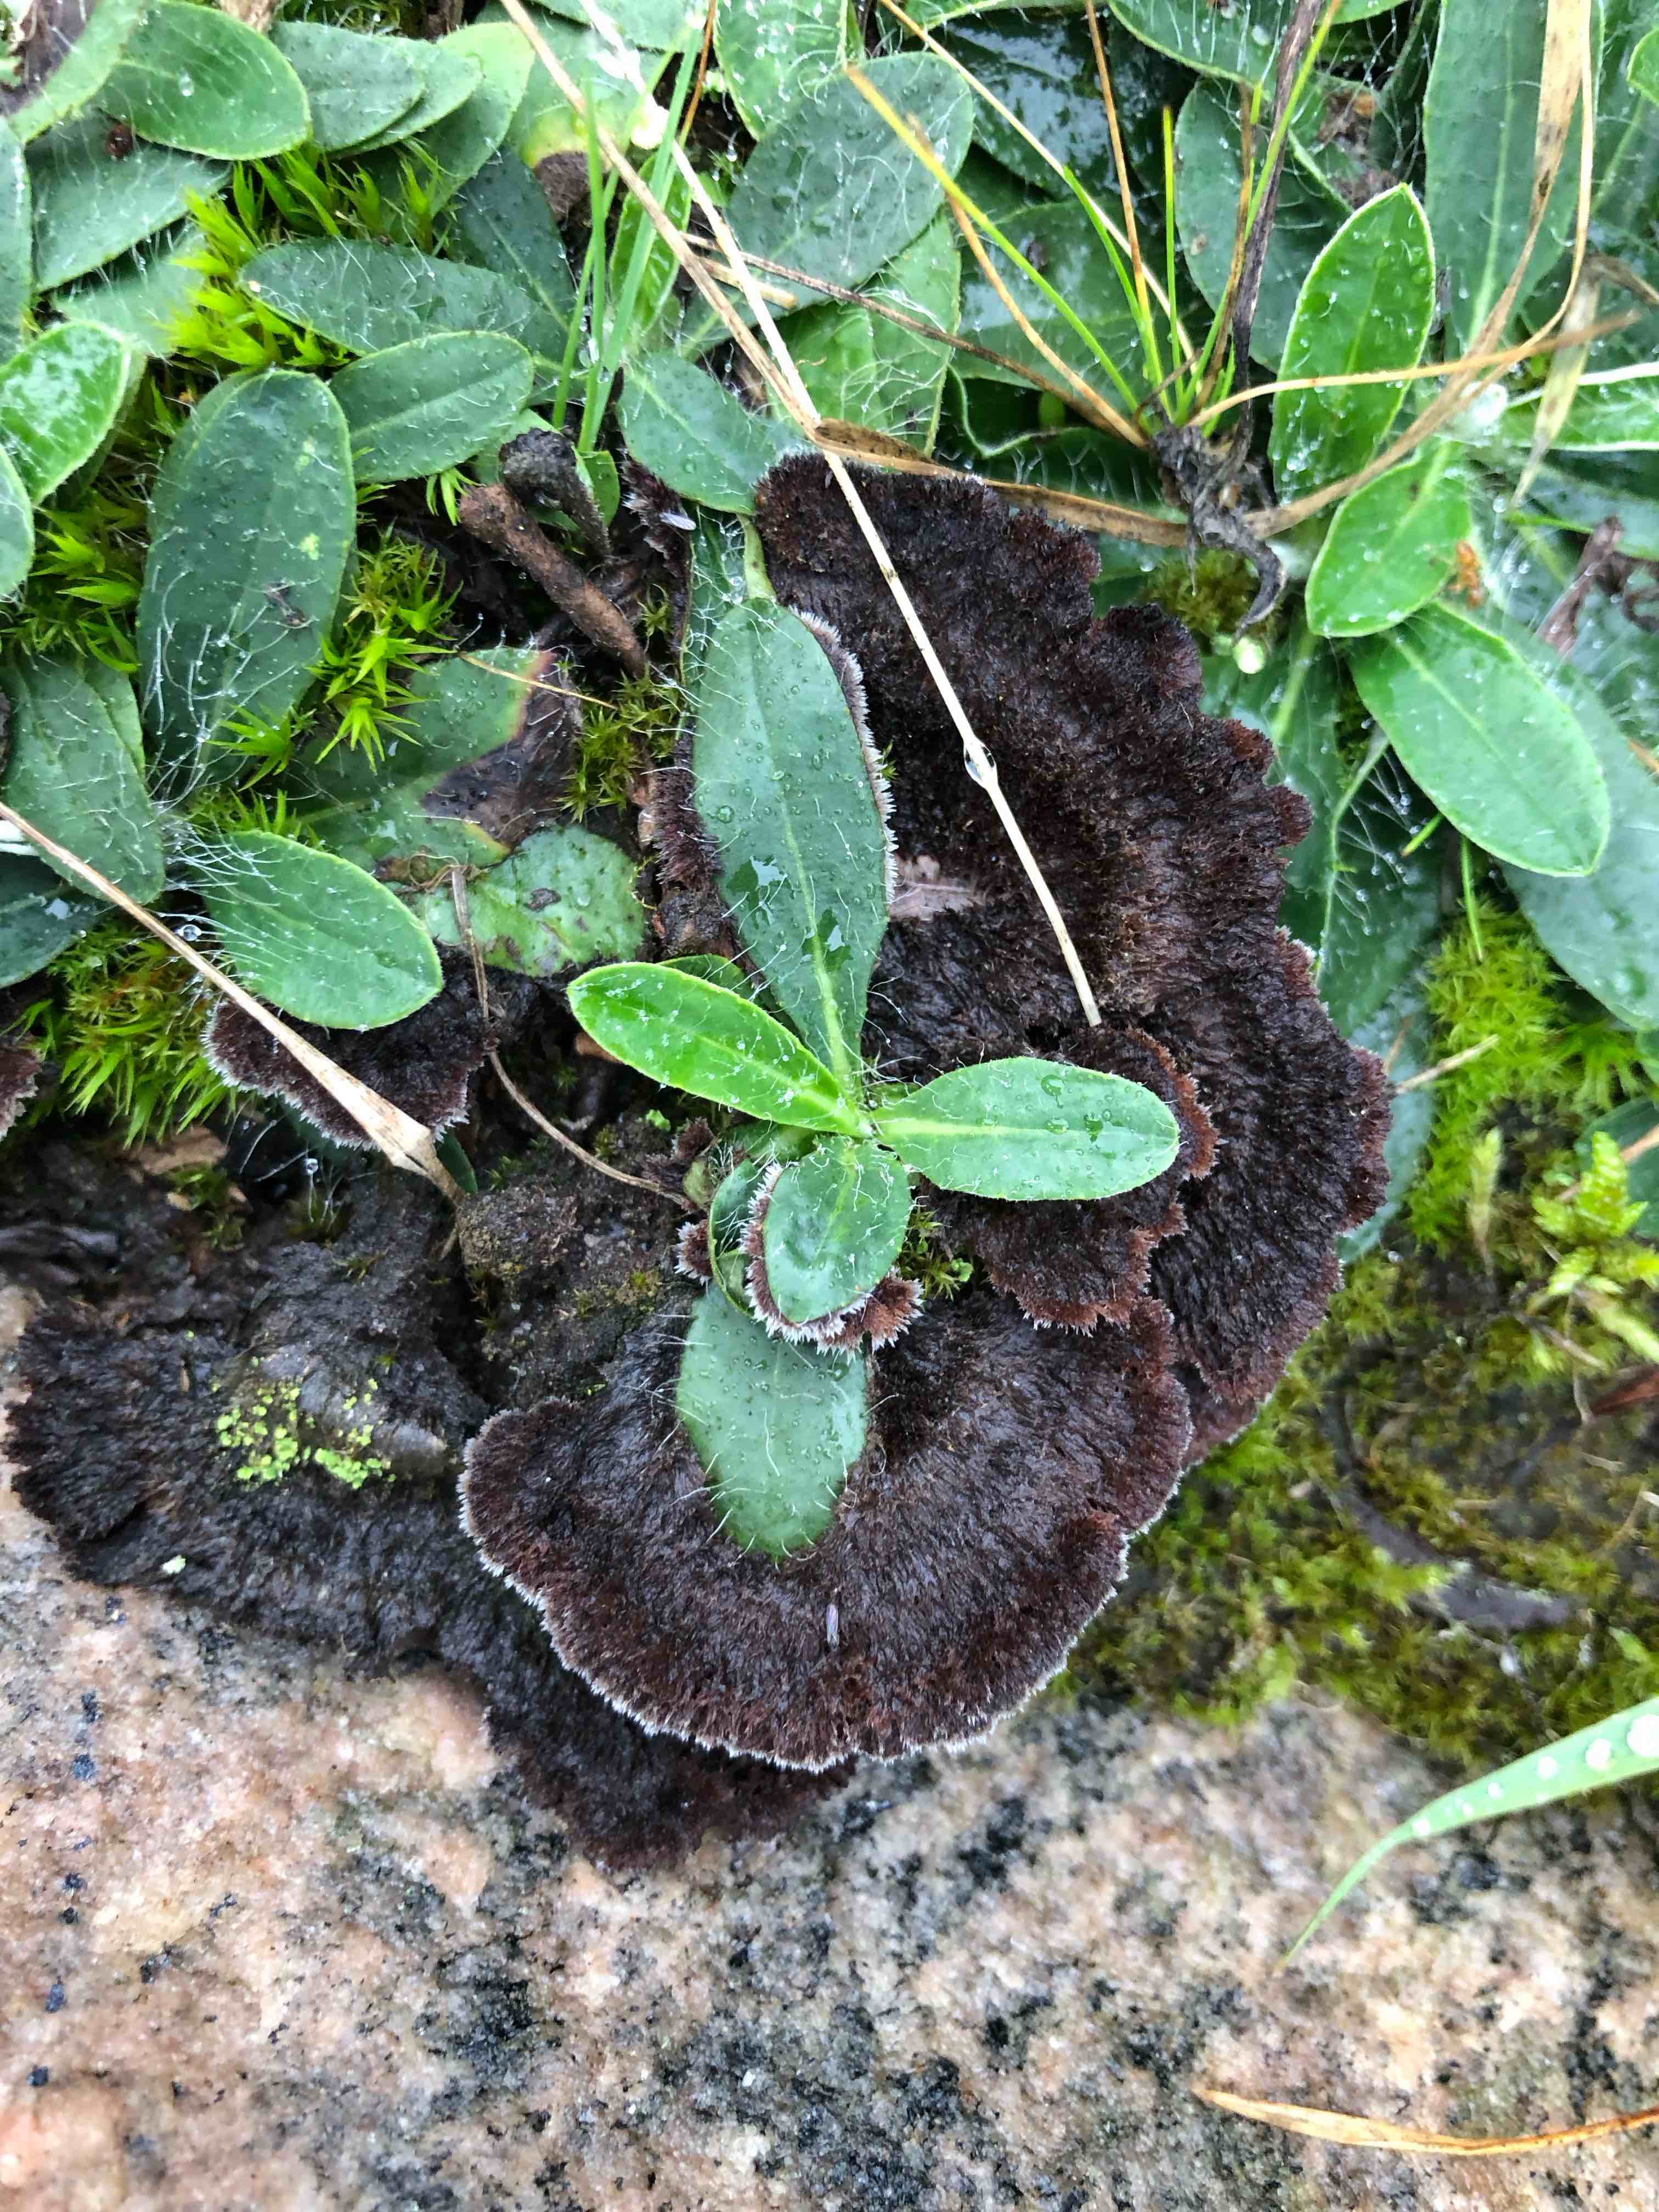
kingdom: Fungi
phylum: Basidiomycota
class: Agaricomycetes
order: Thelephorales
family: Thelephoraceae
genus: Thelephora
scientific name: Thelephora terrestris
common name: fliget frynsesvamp
